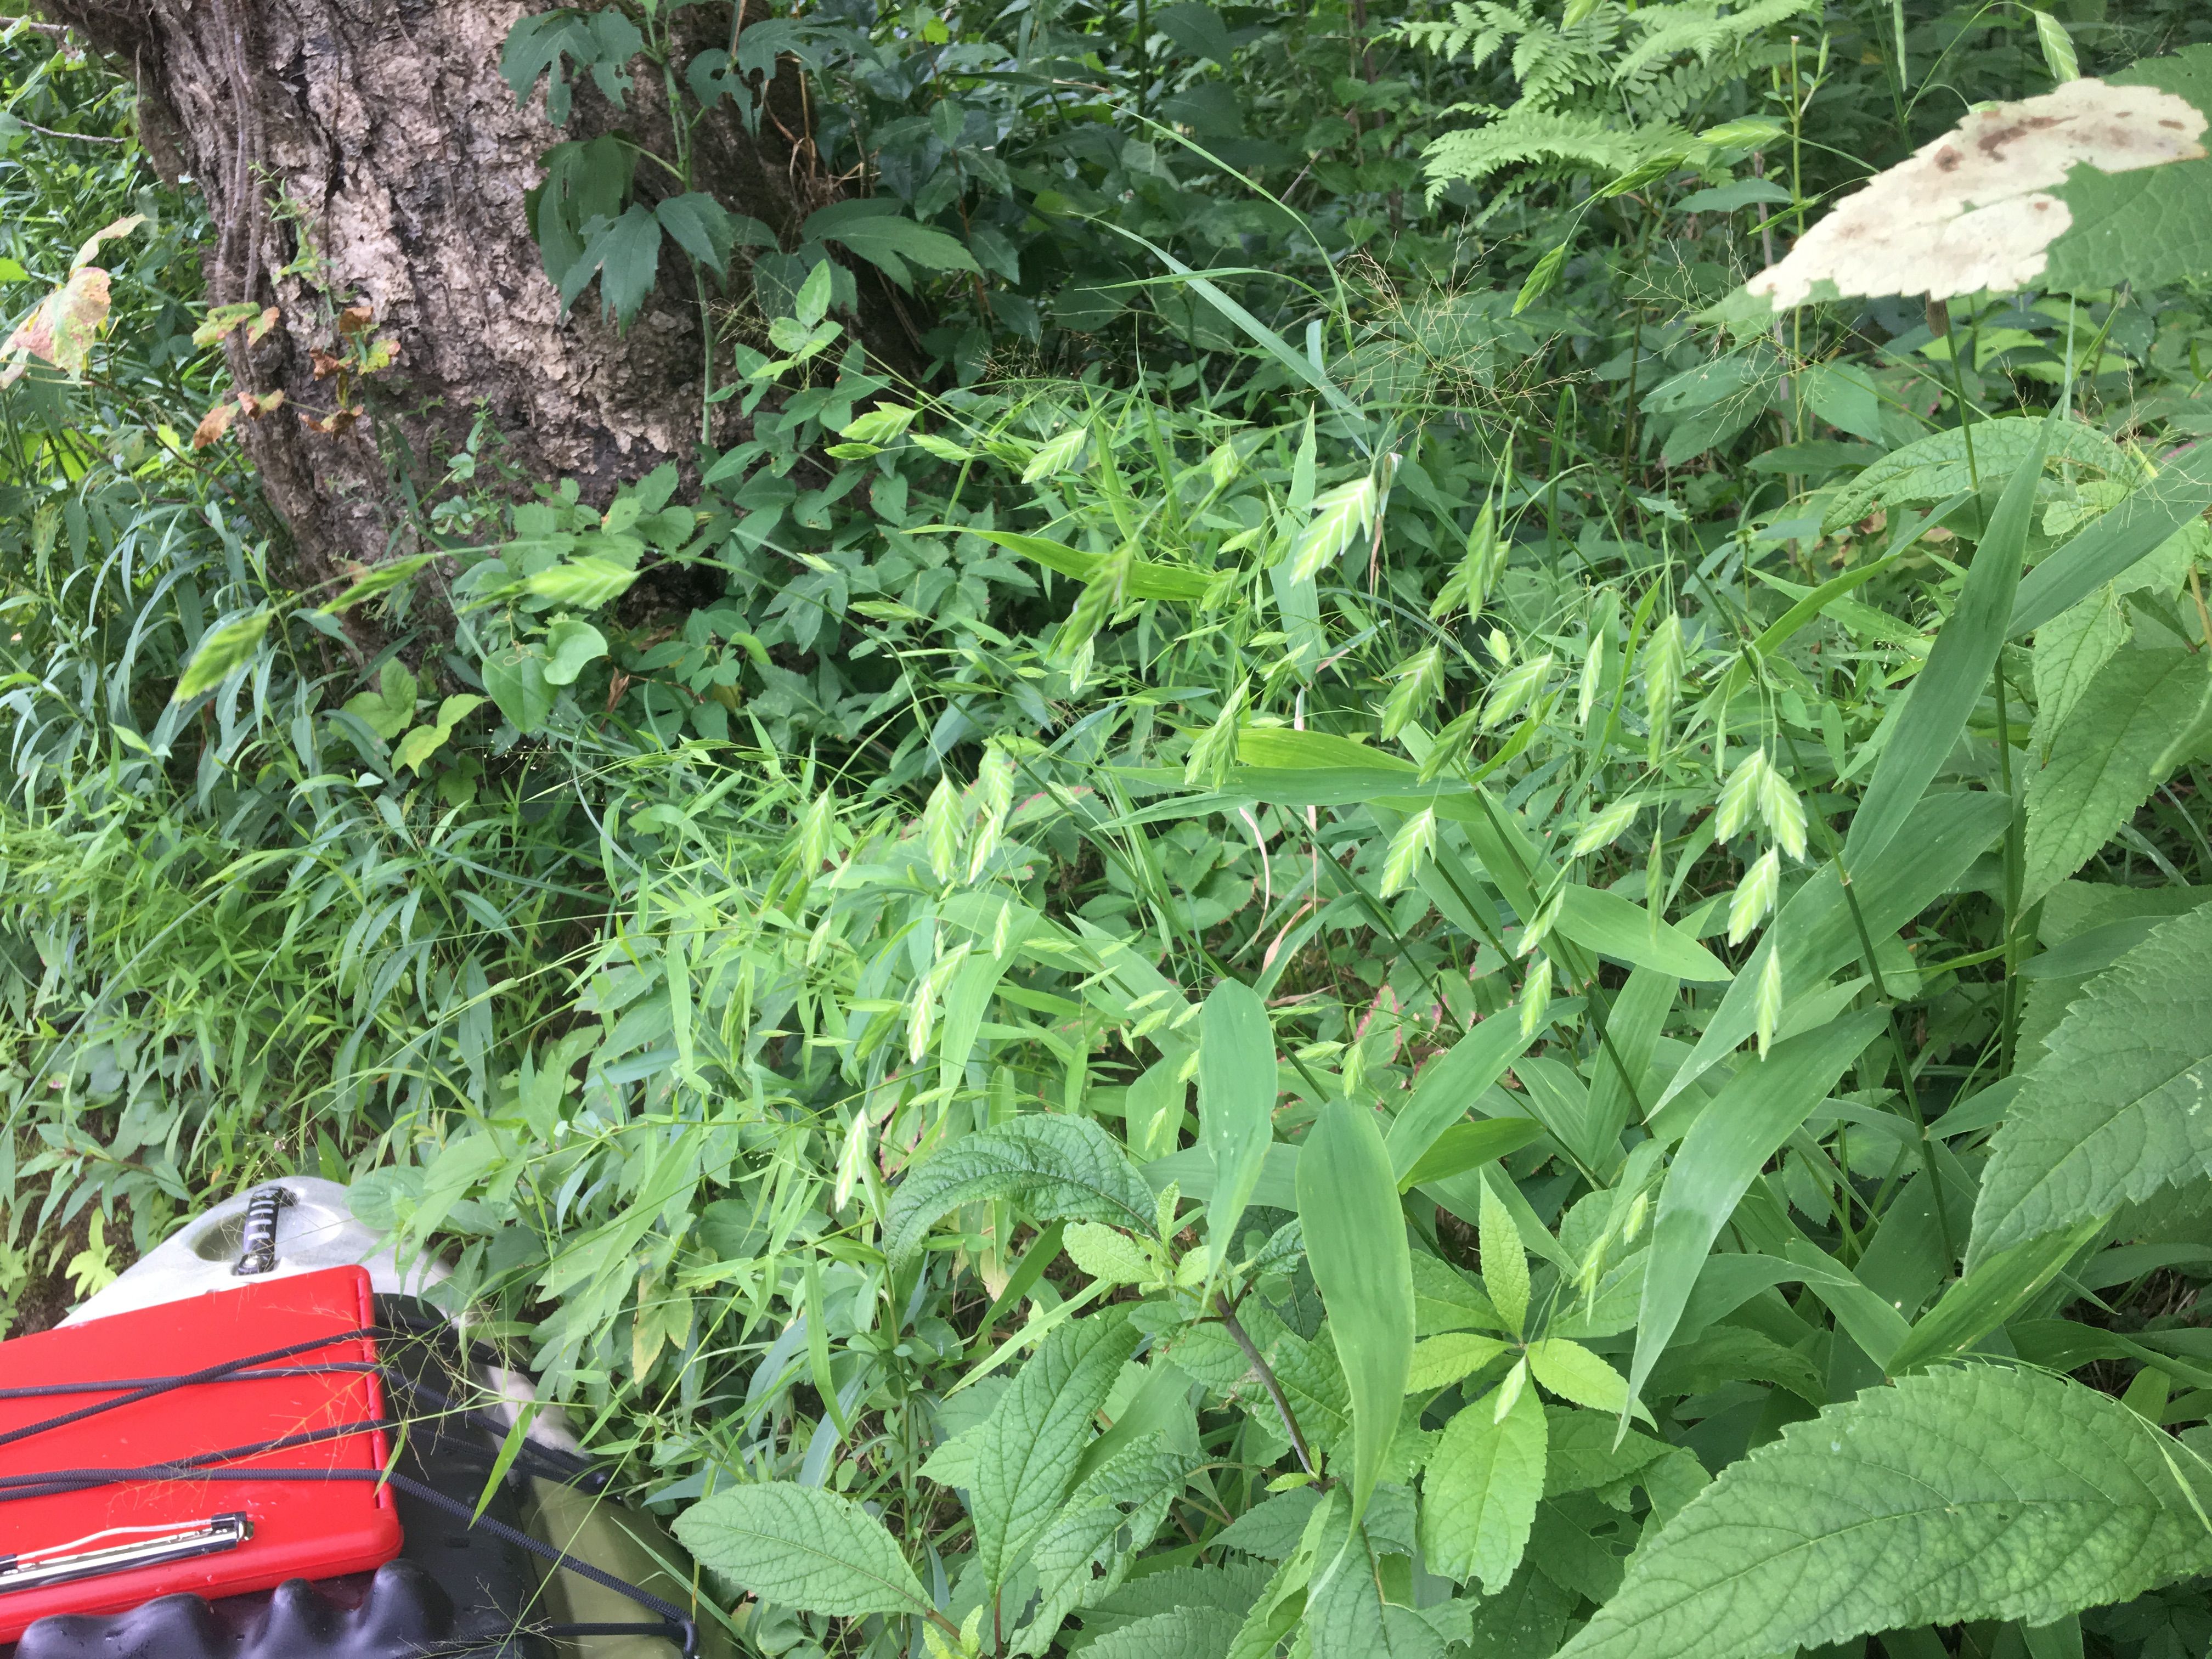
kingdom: Plantae
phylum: Tracheophyta
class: Liliopsida
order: Poales
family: Poaceae
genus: Chasmanthium
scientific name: Chasmanthium latifolium
